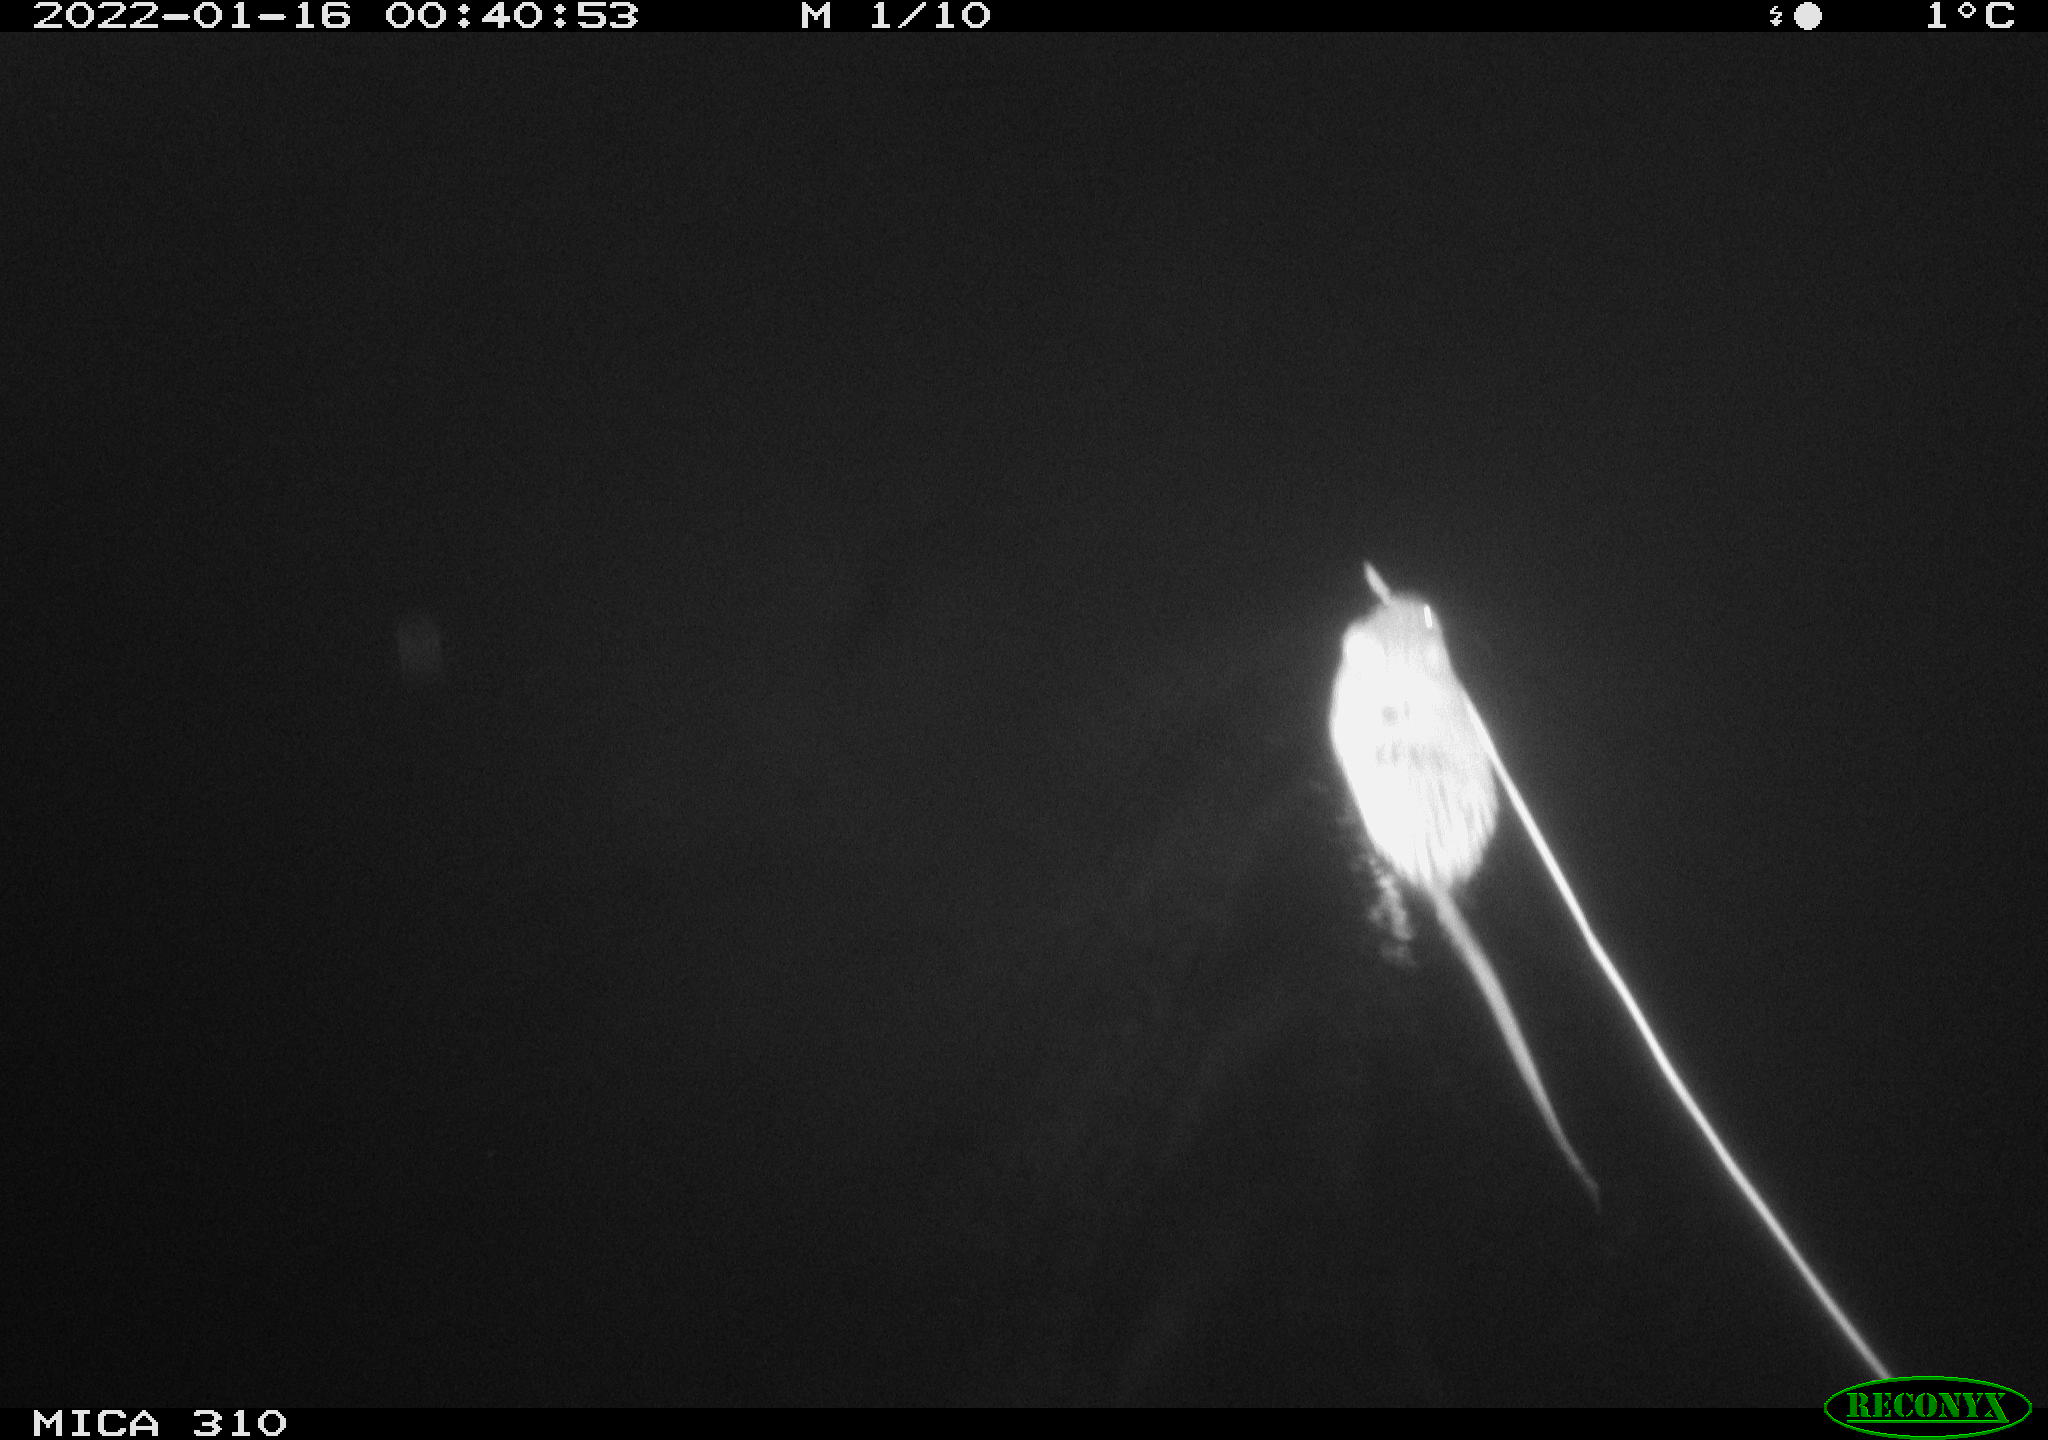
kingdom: Animalia
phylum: Chordata
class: Mammalia
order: Rodentia
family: Cricetidae
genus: Ondatra
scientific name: Ondatra zibethicus
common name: Muskrat
